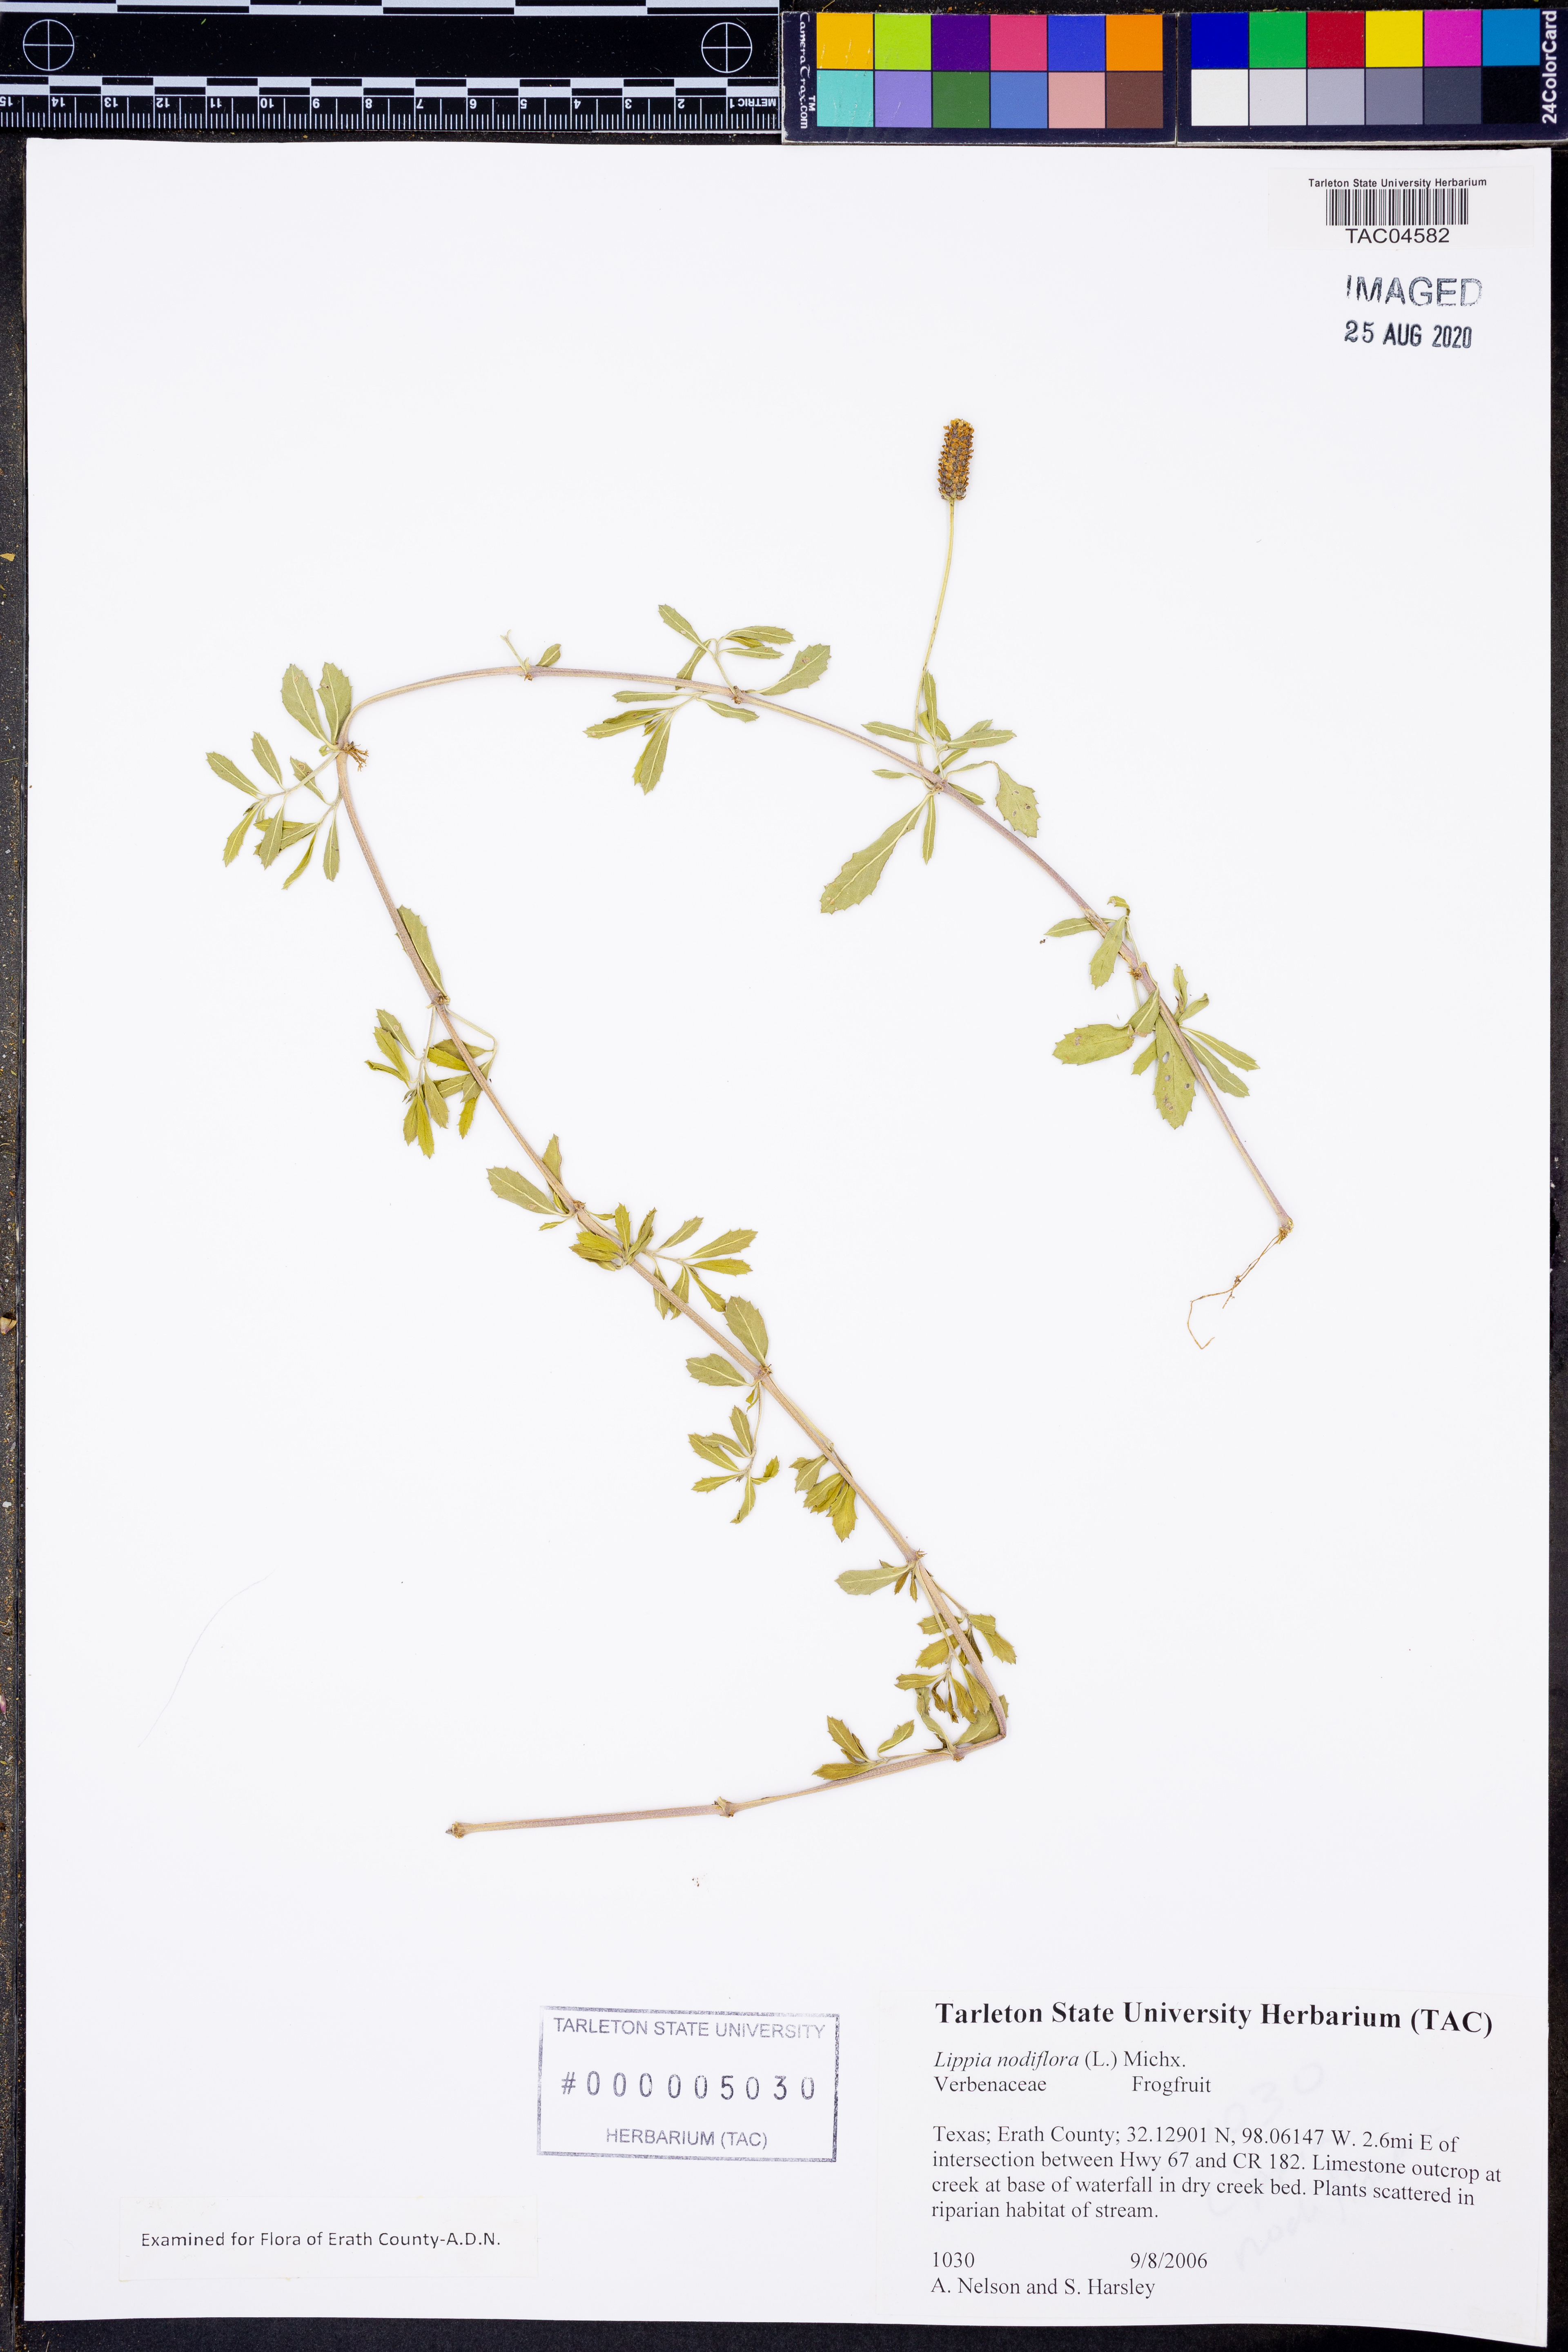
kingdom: Plantae
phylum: Tracheophyta
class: Magnoliopsida
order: Lamiales
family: Verbenaceae
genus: Phyla
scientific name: Phyla nodiflora
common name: Frogfruit
